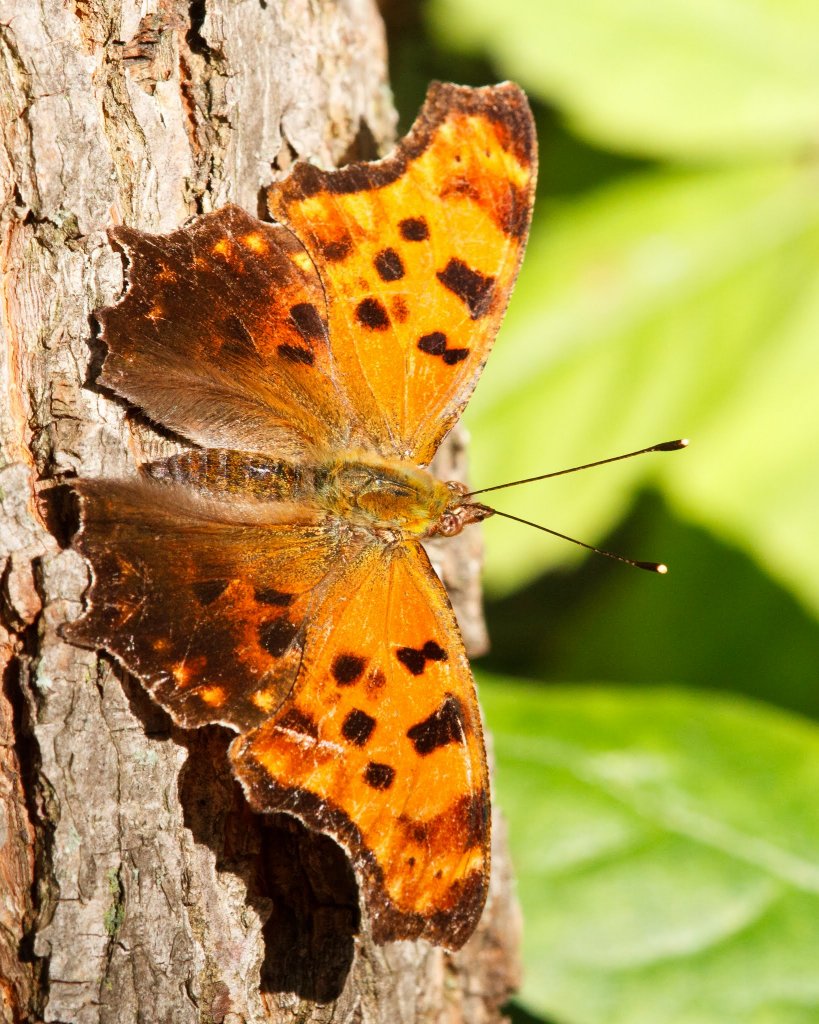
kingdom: Animalia
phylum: Arthropoda
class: Insecta
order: Lepidoptera
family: Nymphalidae
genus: Polygonia
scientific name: Polygonia comma
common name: Eastern Comma
